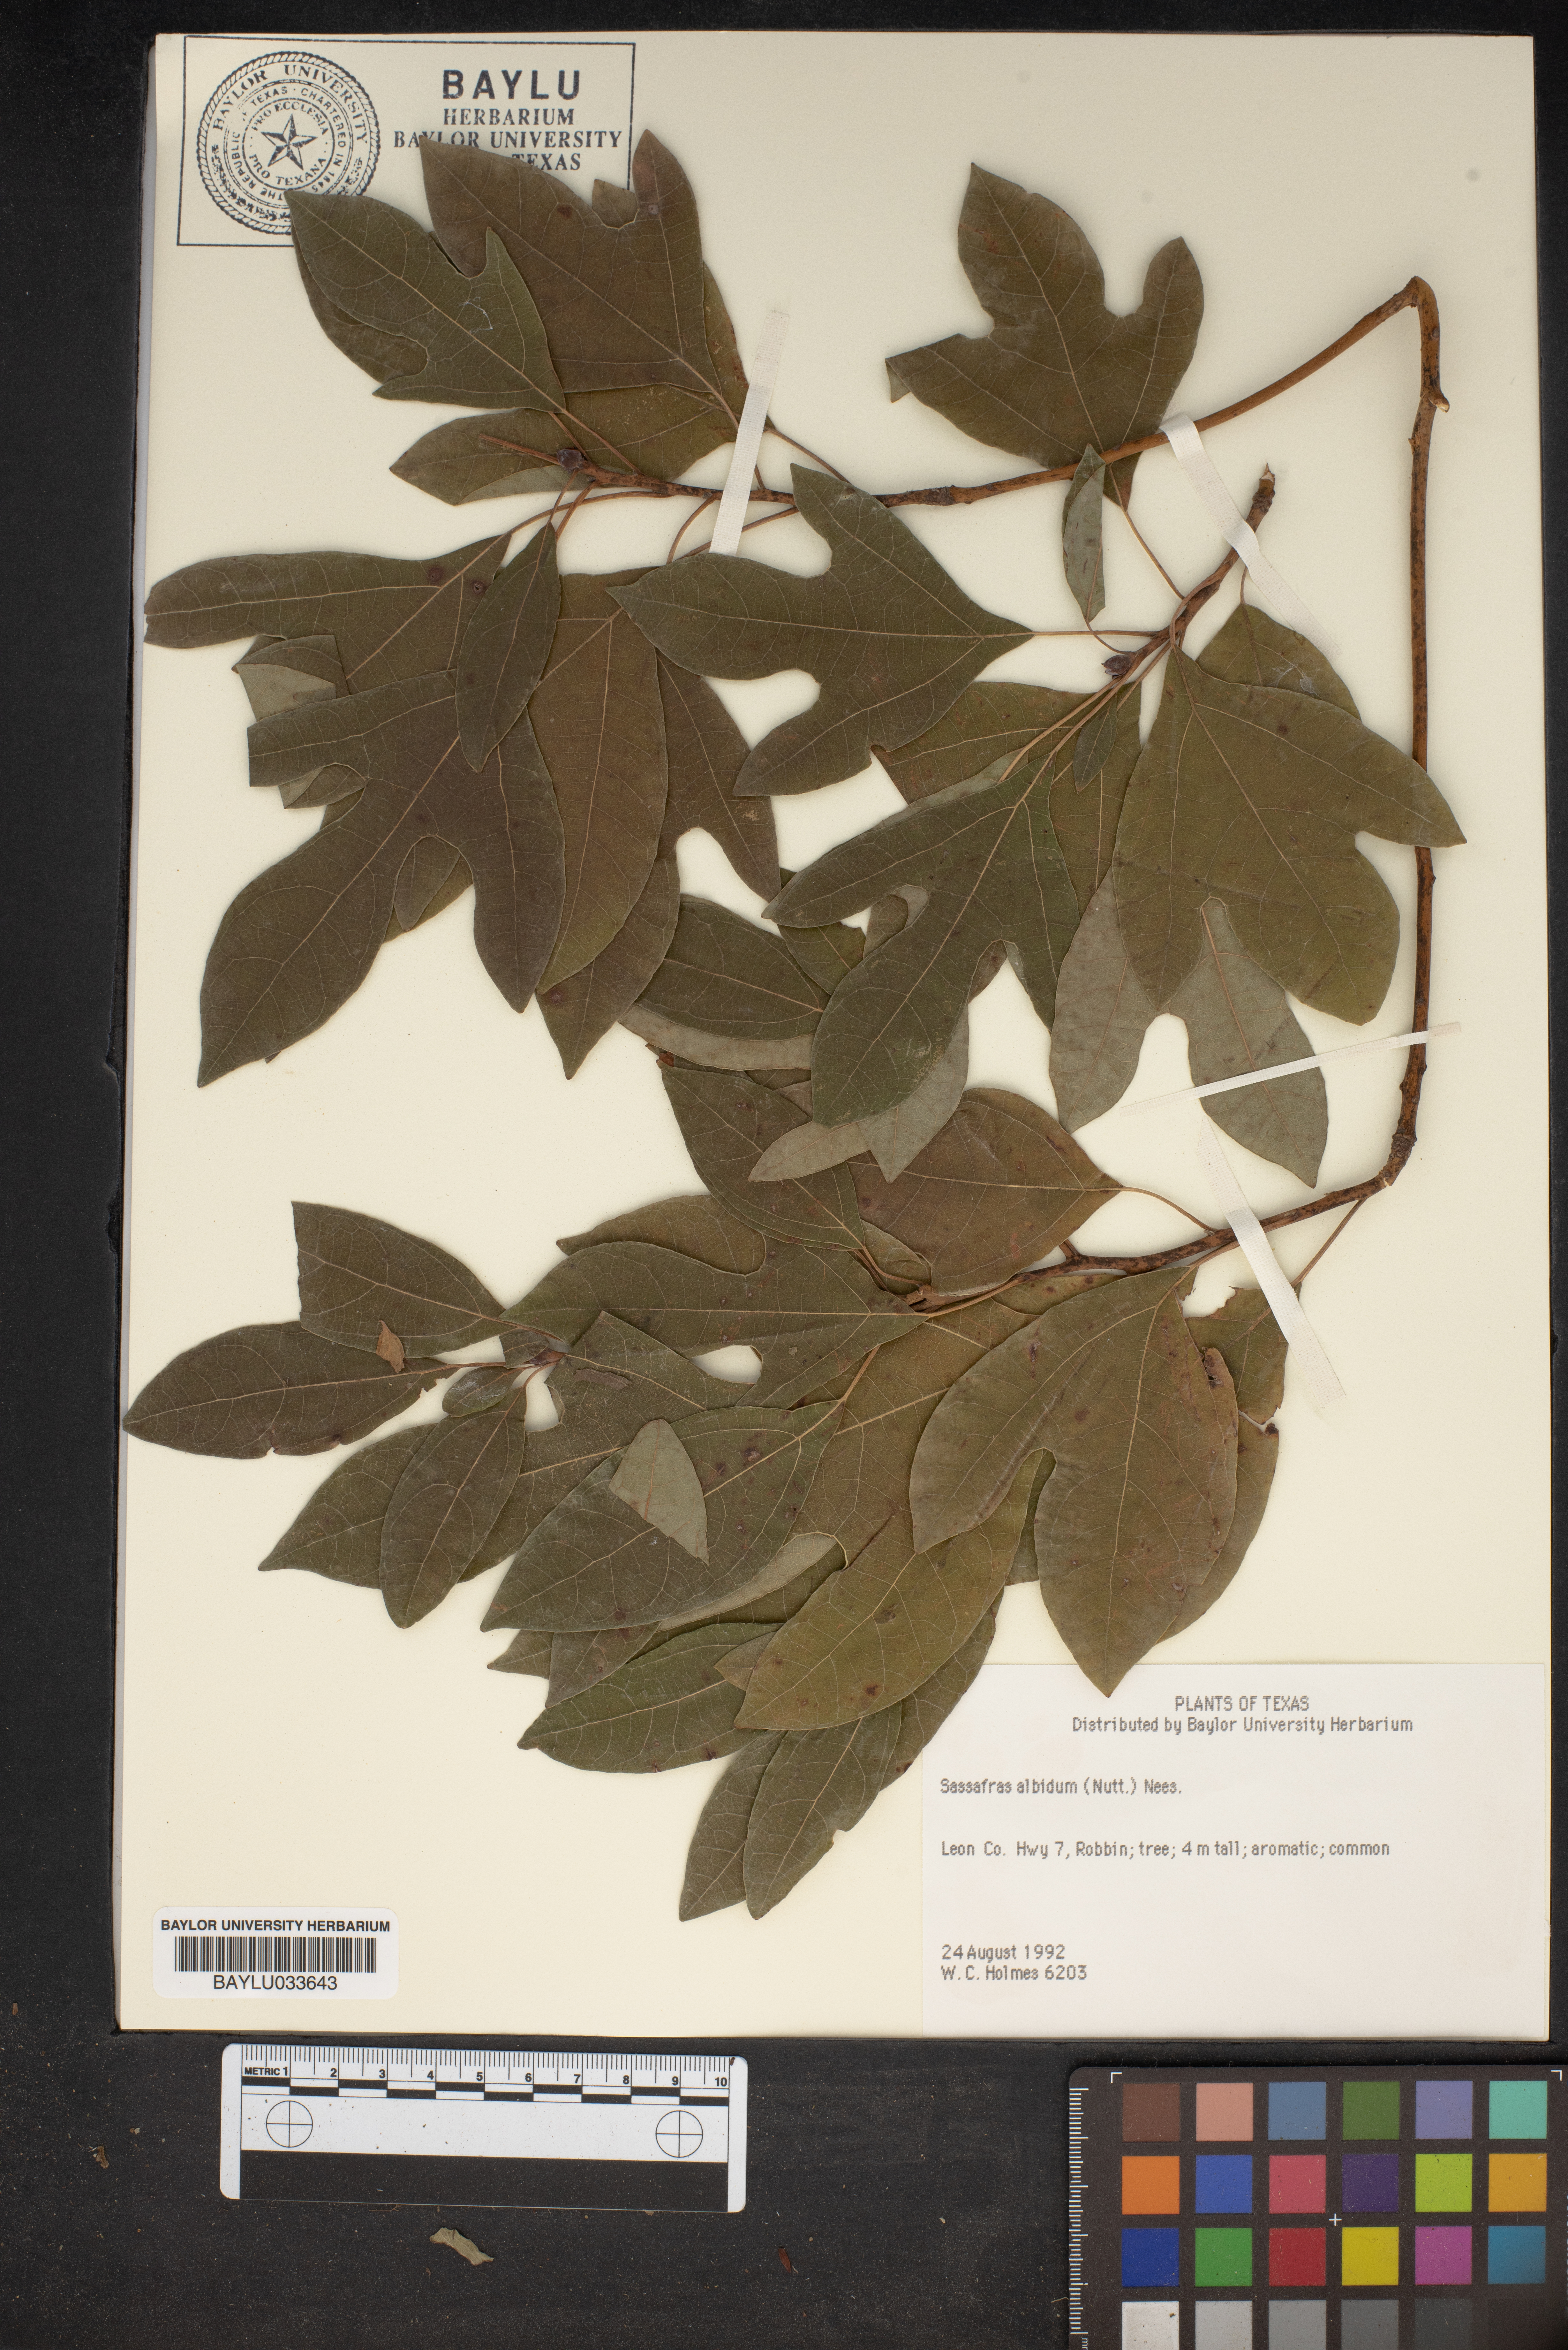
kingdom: Plantae
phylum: Tracheophyta
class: Magnoliopsida
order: Laurales
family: Lauraceae
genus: Sassafras
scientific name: Sassafras albidum
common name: Sassafras
